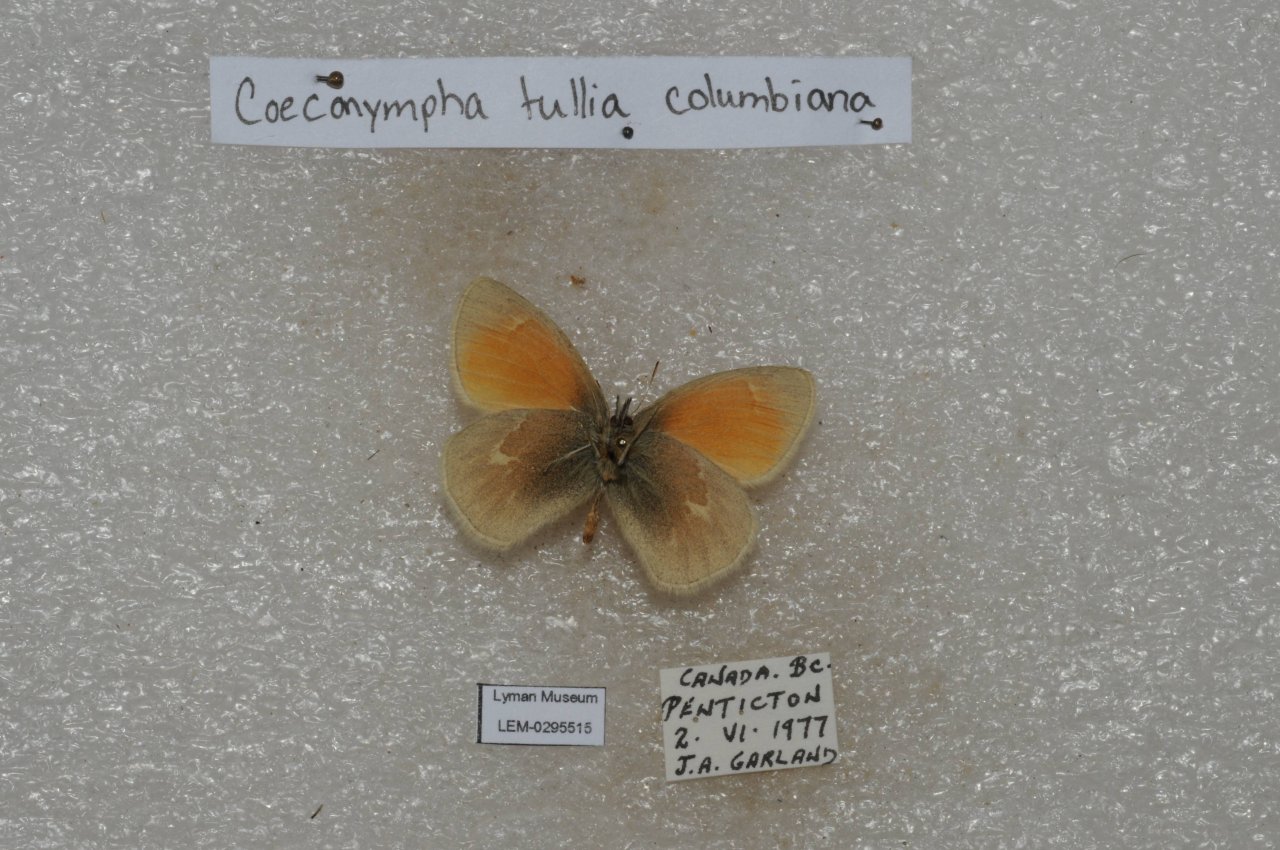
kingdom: Animalia
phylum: Arthropoda
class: Insecta
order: Lepidoptera
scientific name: Lepidoptera
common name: Butterflies
